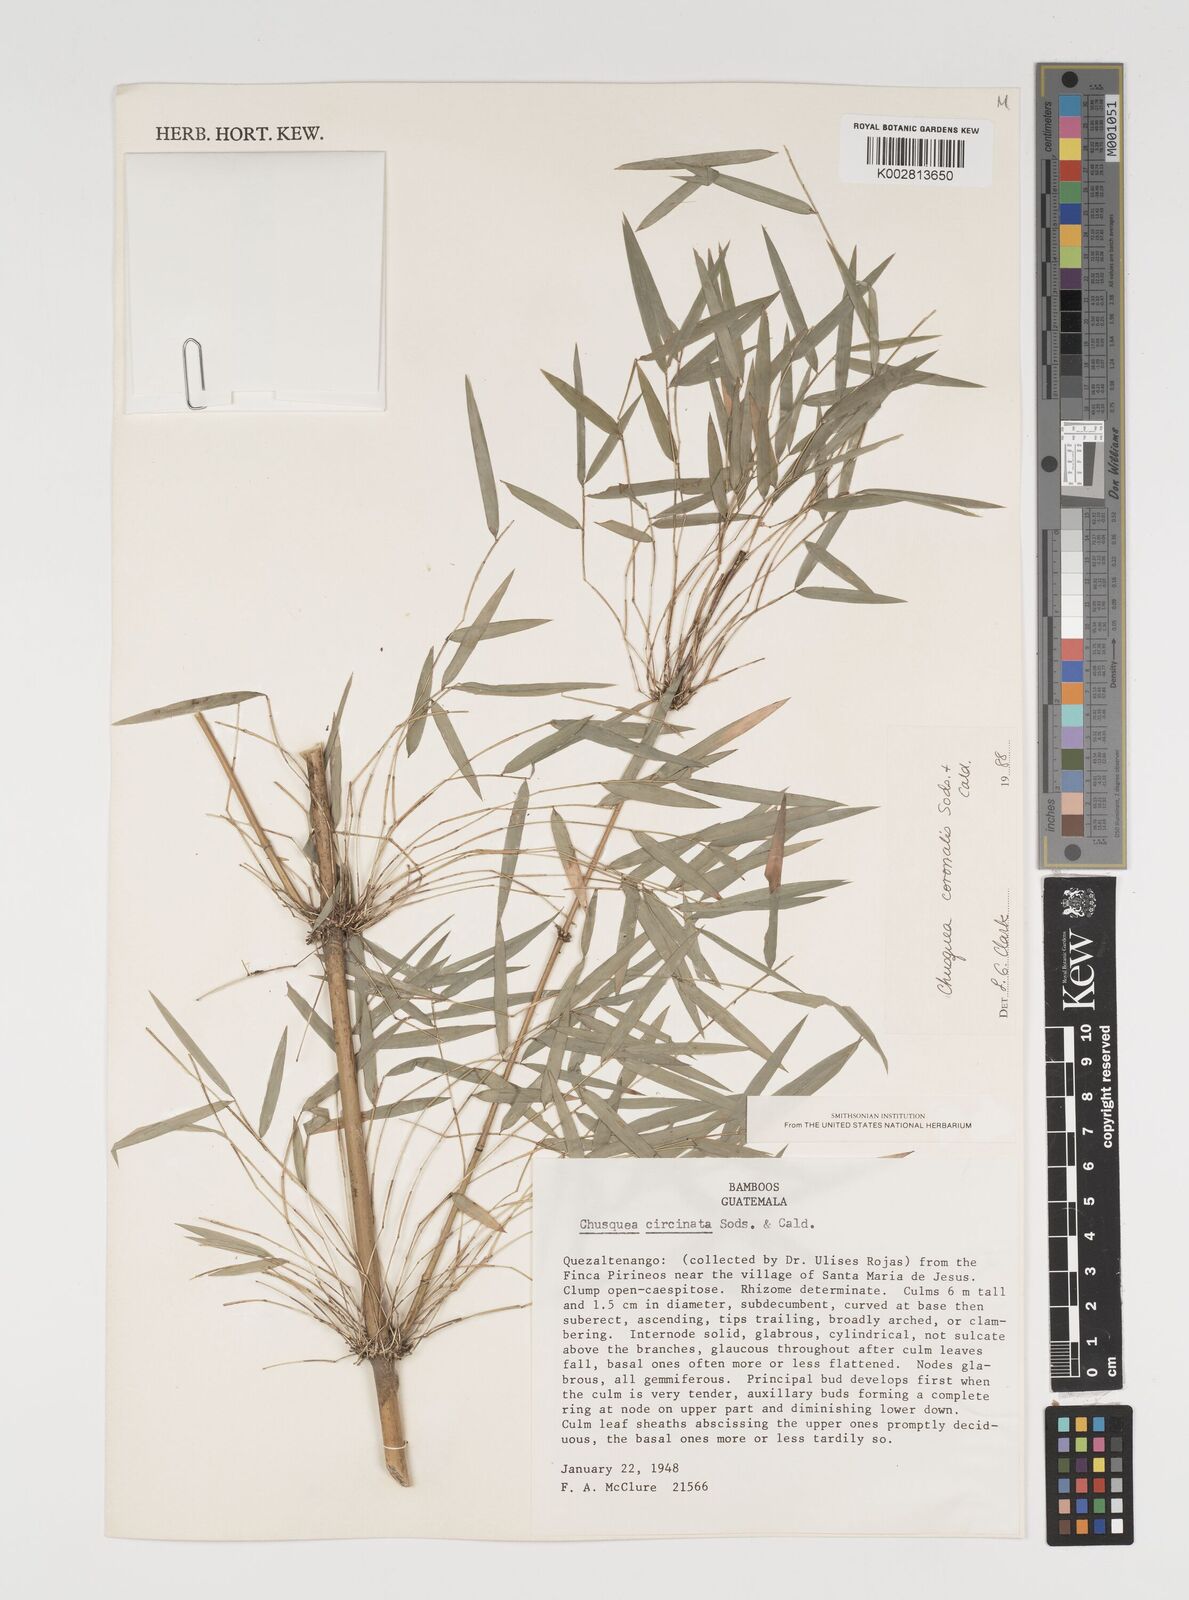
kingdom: Plantae
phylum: Tracheophyta
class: Liliopsida
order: Poales
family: Poaceae
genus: Chusquea
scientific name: Chusquea coronalis
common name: Machris bamboo
